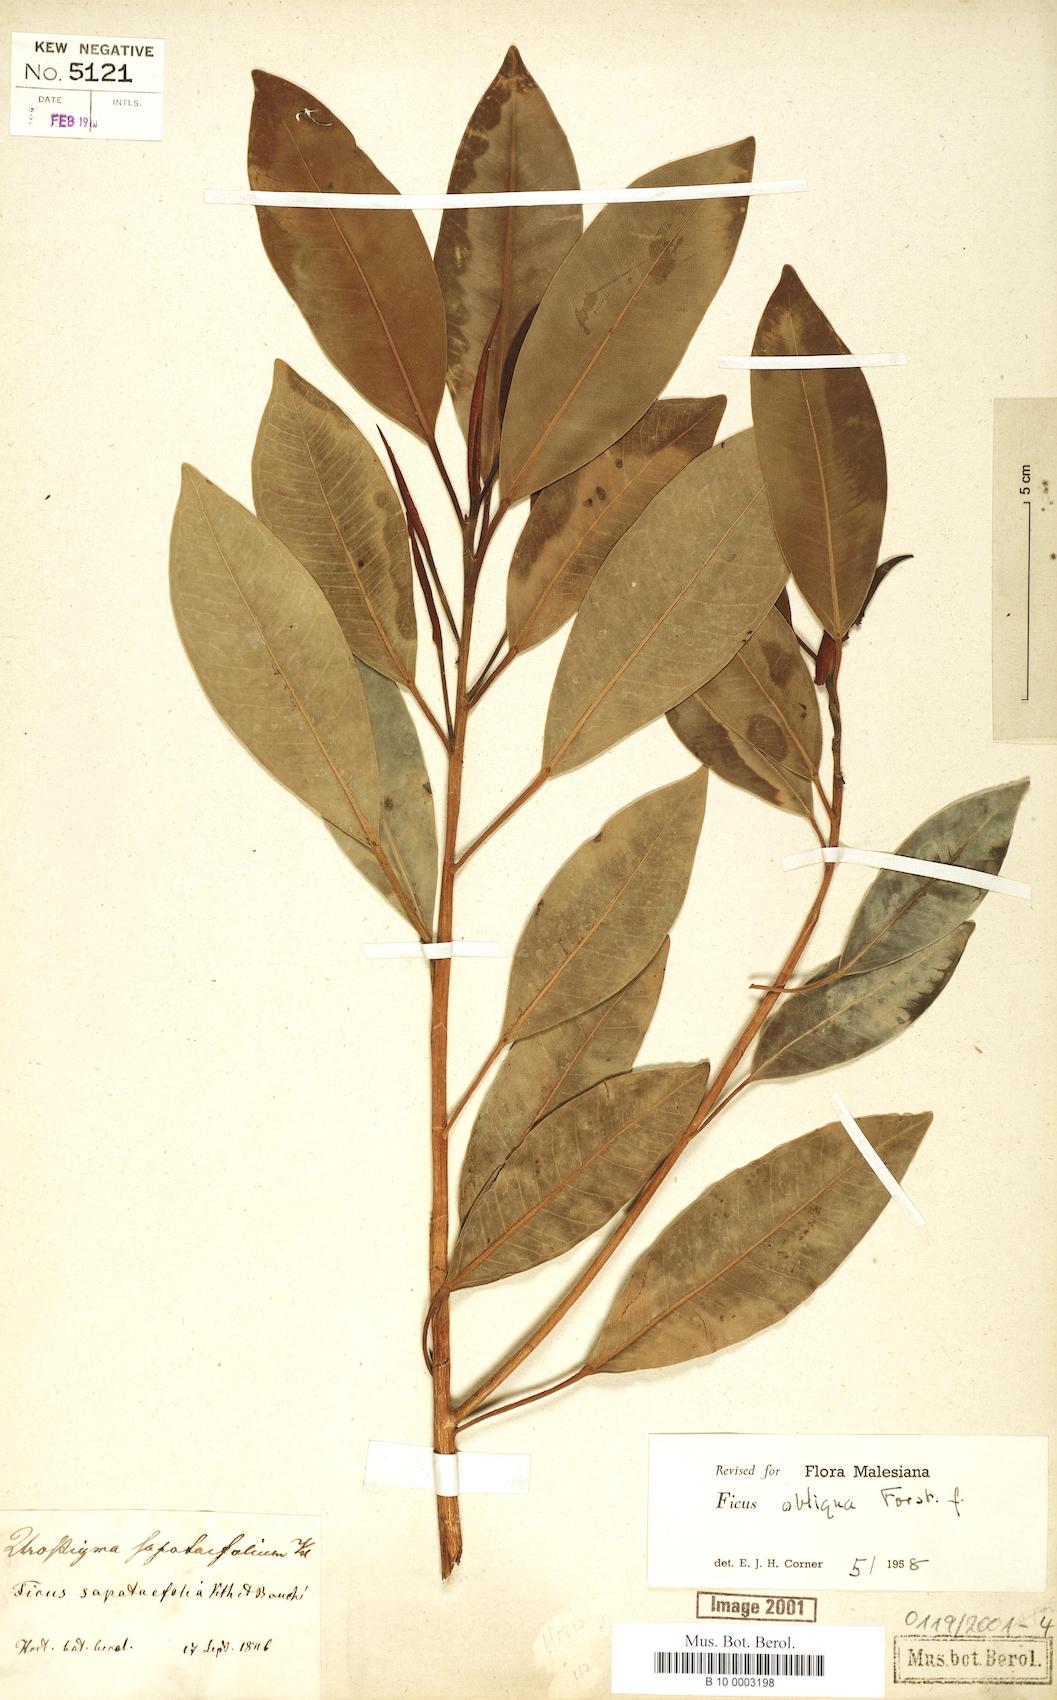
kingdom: Plantae
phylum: Tracheophyta
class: Magnoliopsida
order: Rosales
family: Moraceae
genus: Ficus
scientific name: Ficus obliqua
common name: Small-leaf fig
